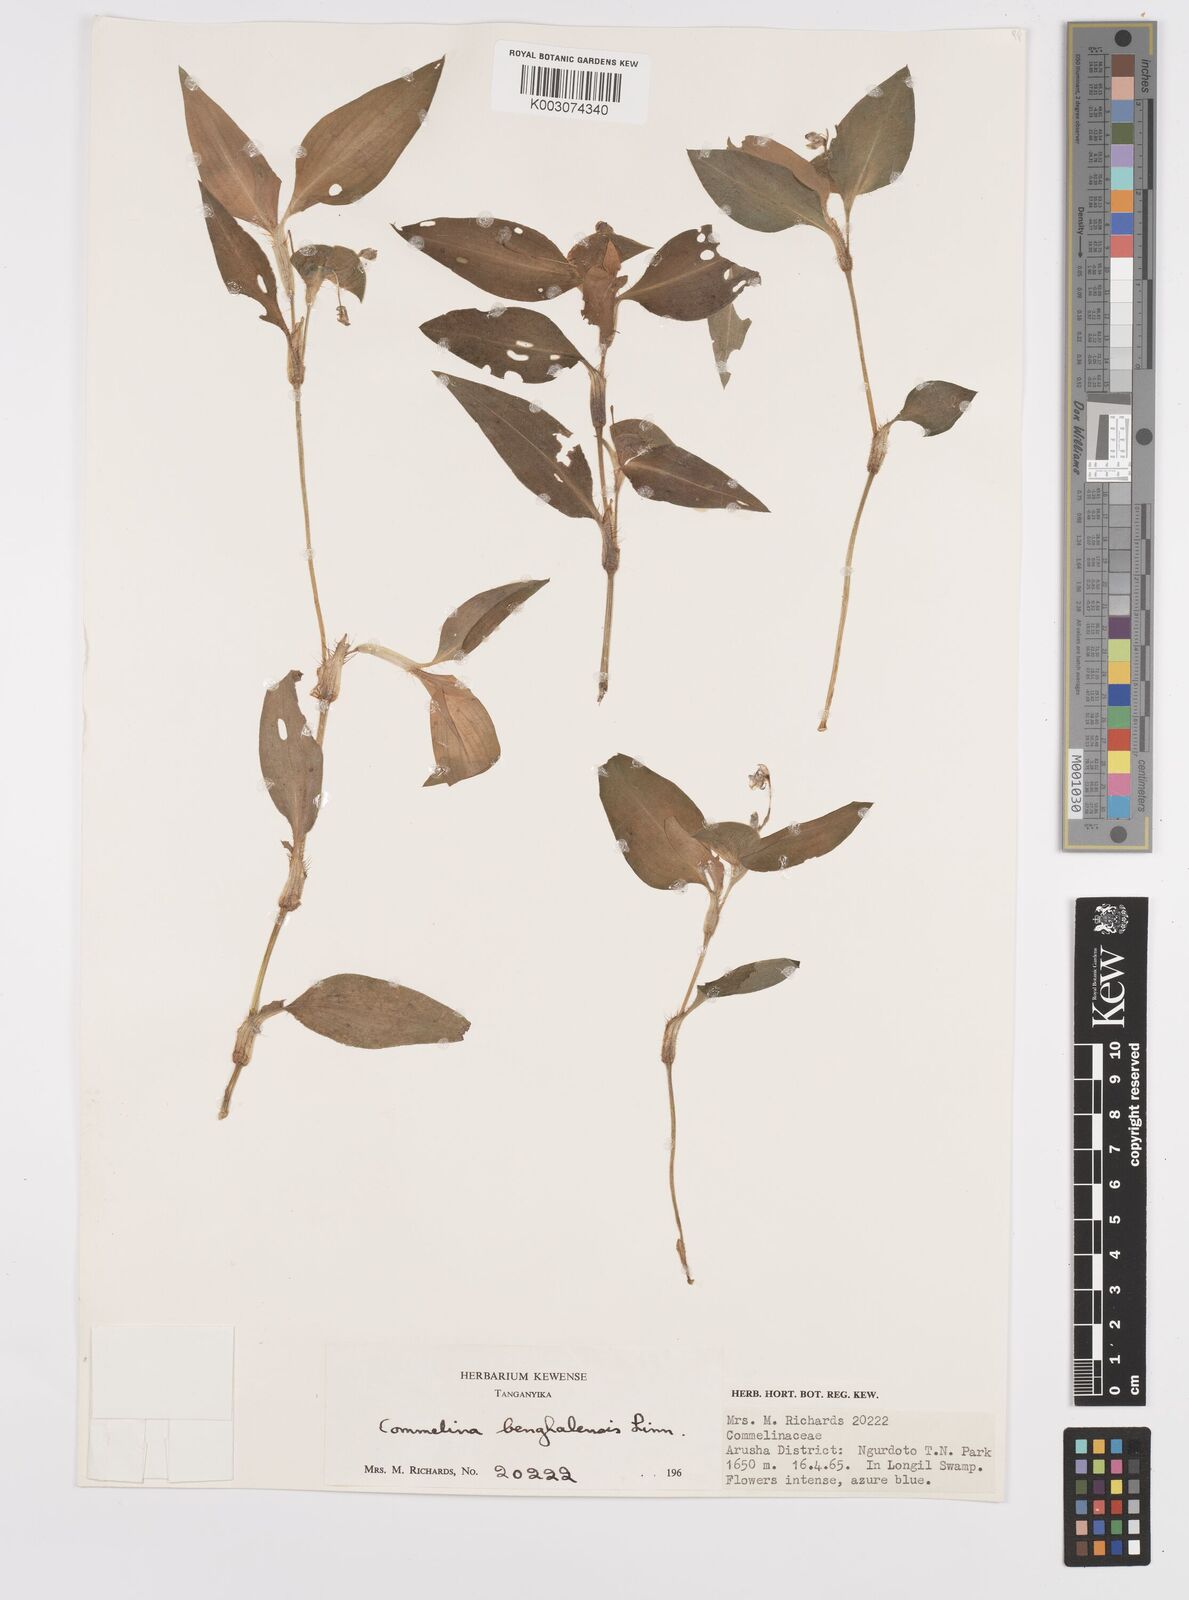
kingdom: Plantae
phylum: Tracheophyta
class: Liliopsida
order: Commelinales
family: Commelinaceae
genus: Commelina
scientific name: Commelina benghalensis
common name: Jio
